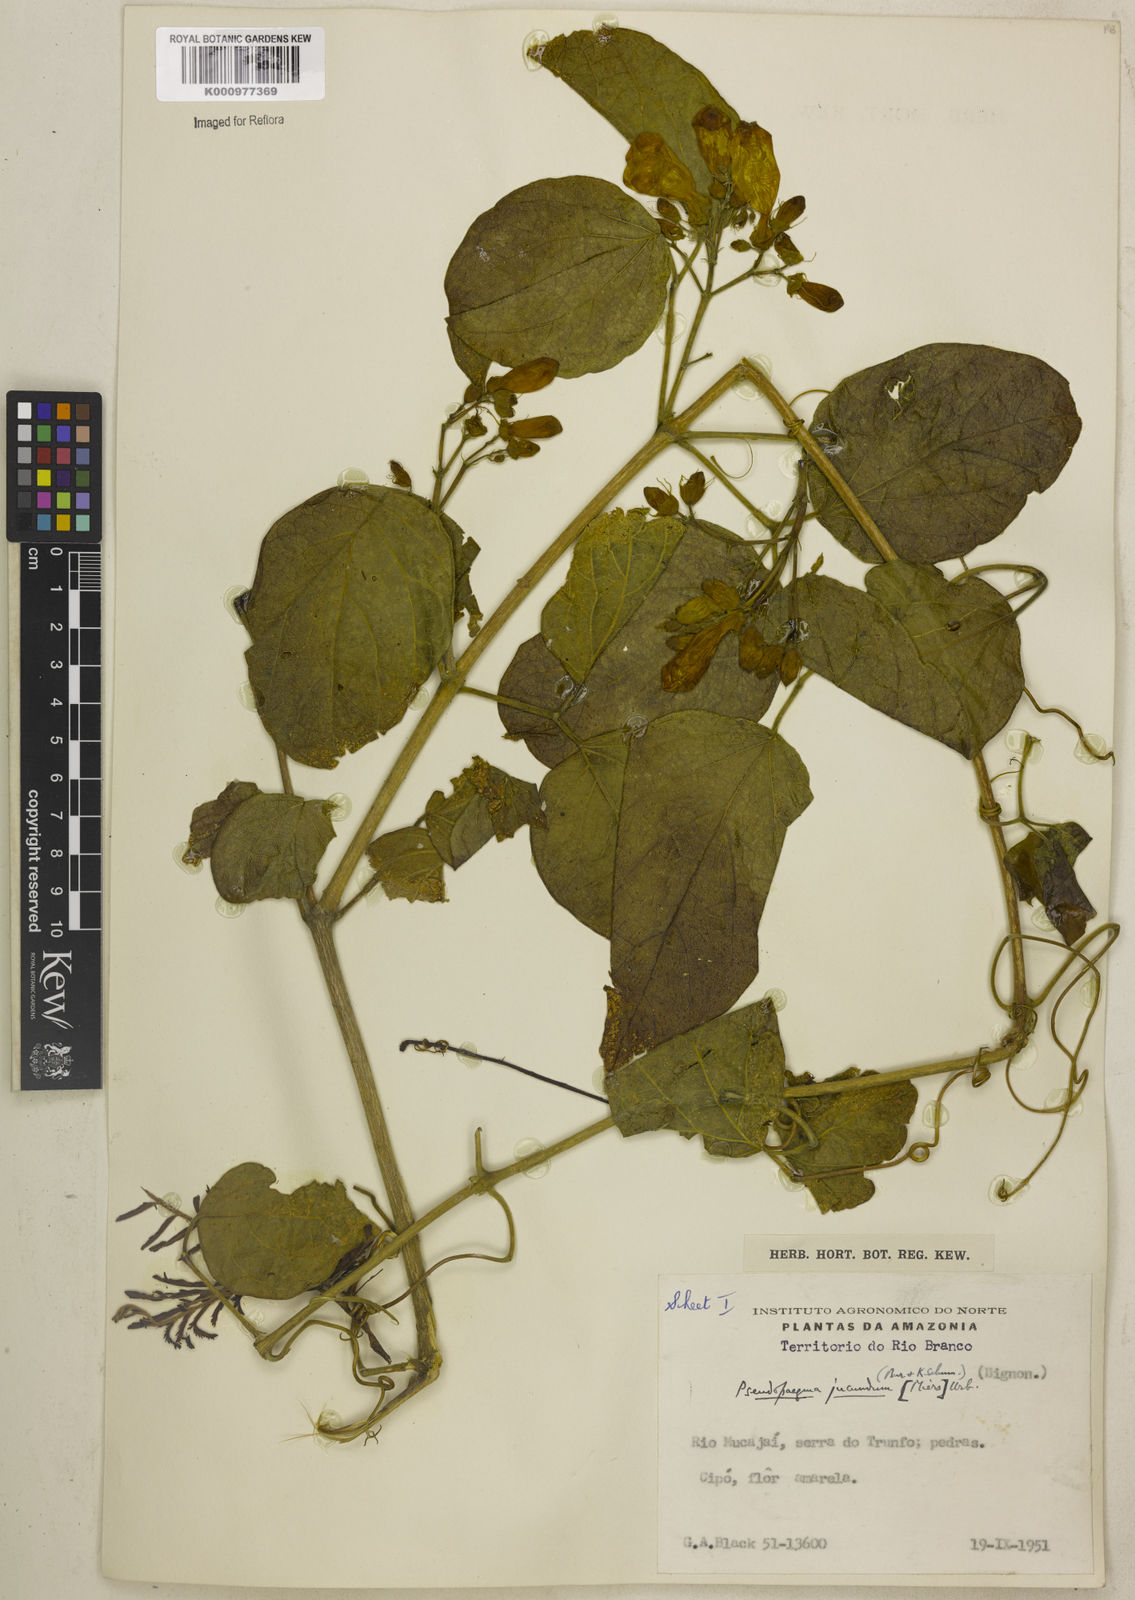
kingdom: Plantae
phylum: Tracheophyta
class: Magnoliopsida
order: Lamiales
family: Bignoniaceae
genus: Anemopaegma
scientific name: Anemopaegma jucundum
